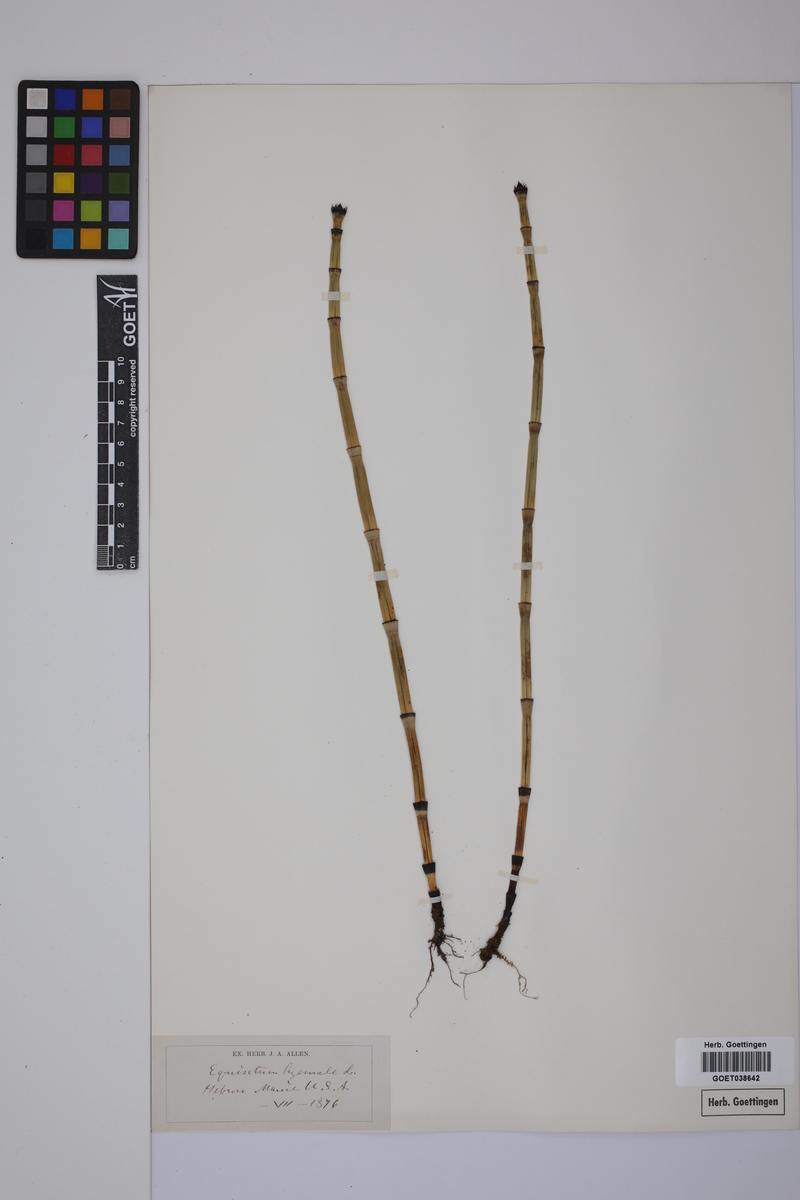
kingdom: Plantae
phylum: Tracheophyta
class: Polypodiopsida
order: Equisetales
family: Equisetaceae
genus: Equisetum
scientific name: Equisetum hyemale
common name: Rough horsetail
